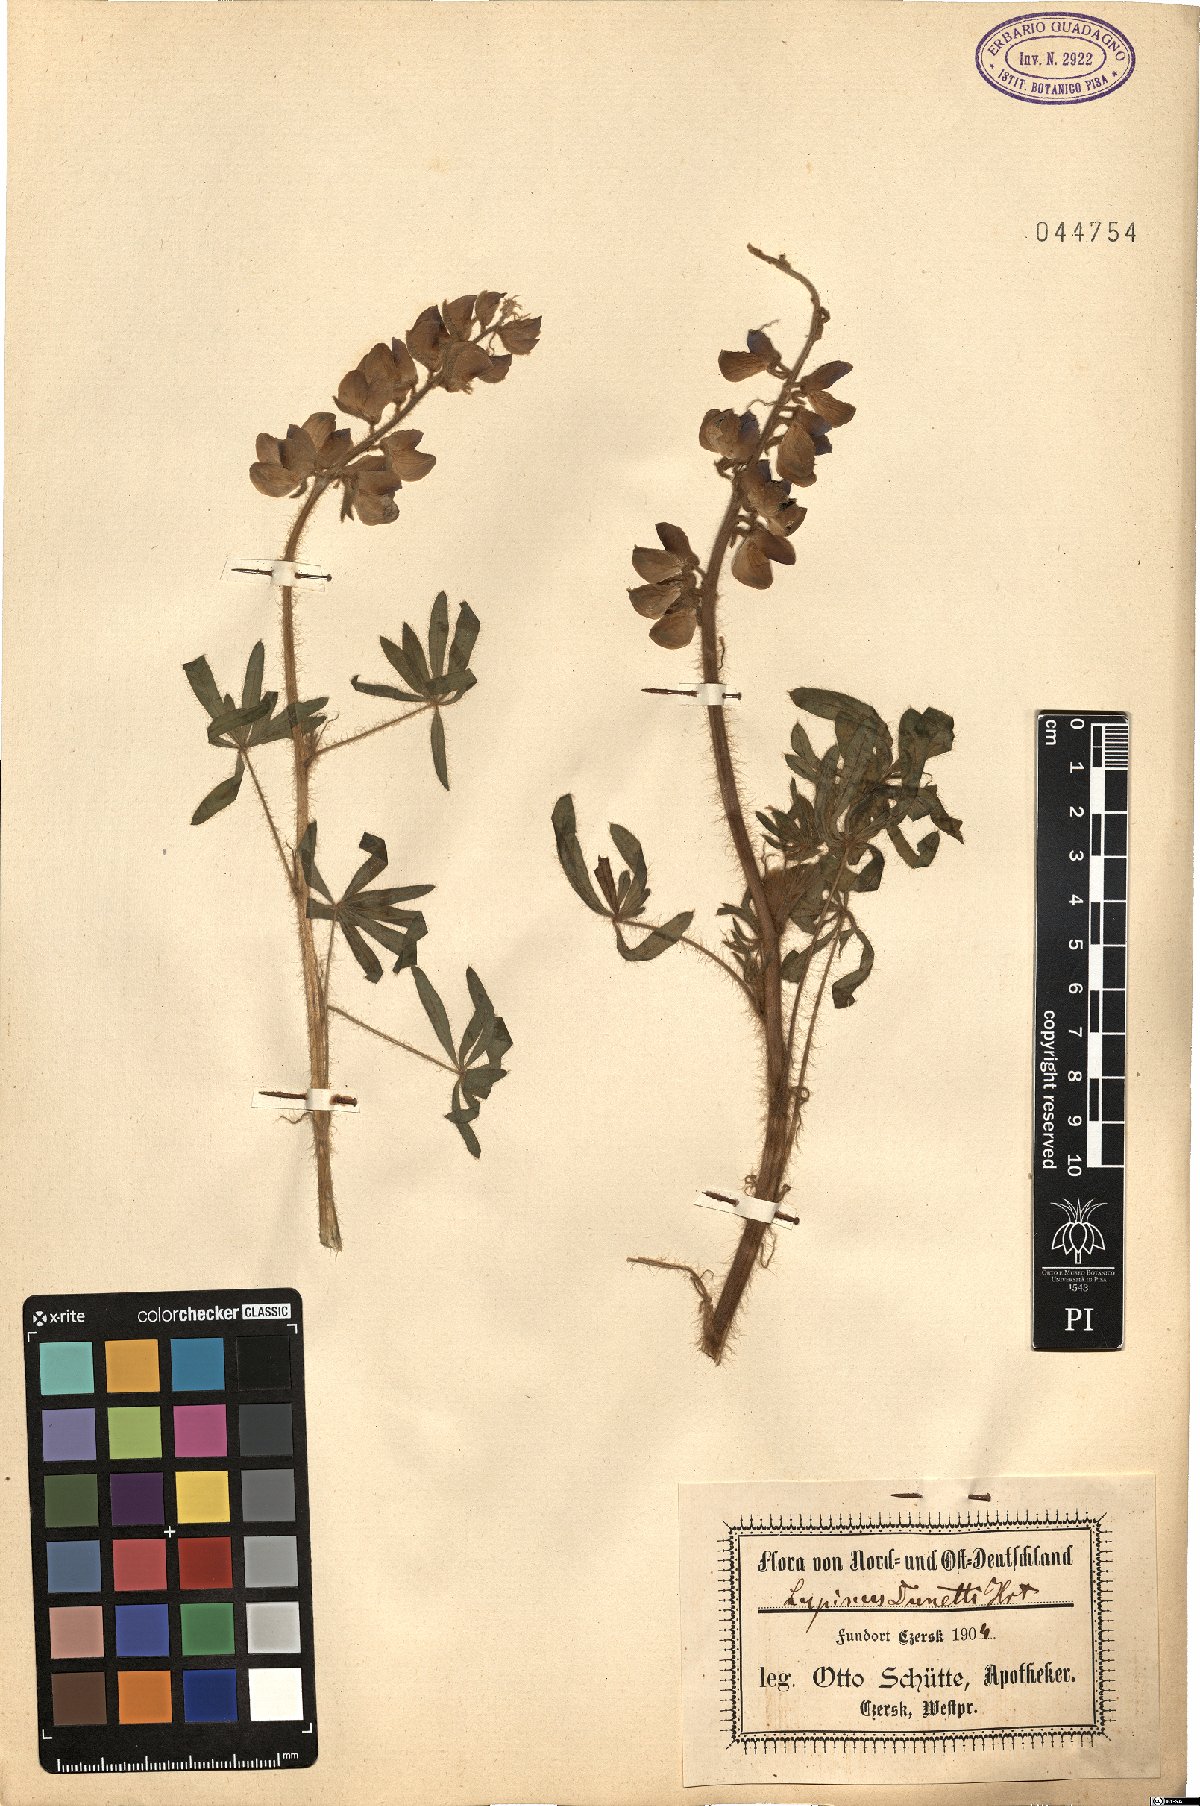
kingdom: Plantae
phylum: Tracheophyta
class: Magnoliopsida
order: Fabales
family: Fabaceae
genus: Lupinus
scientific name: Lupinus pubescens
